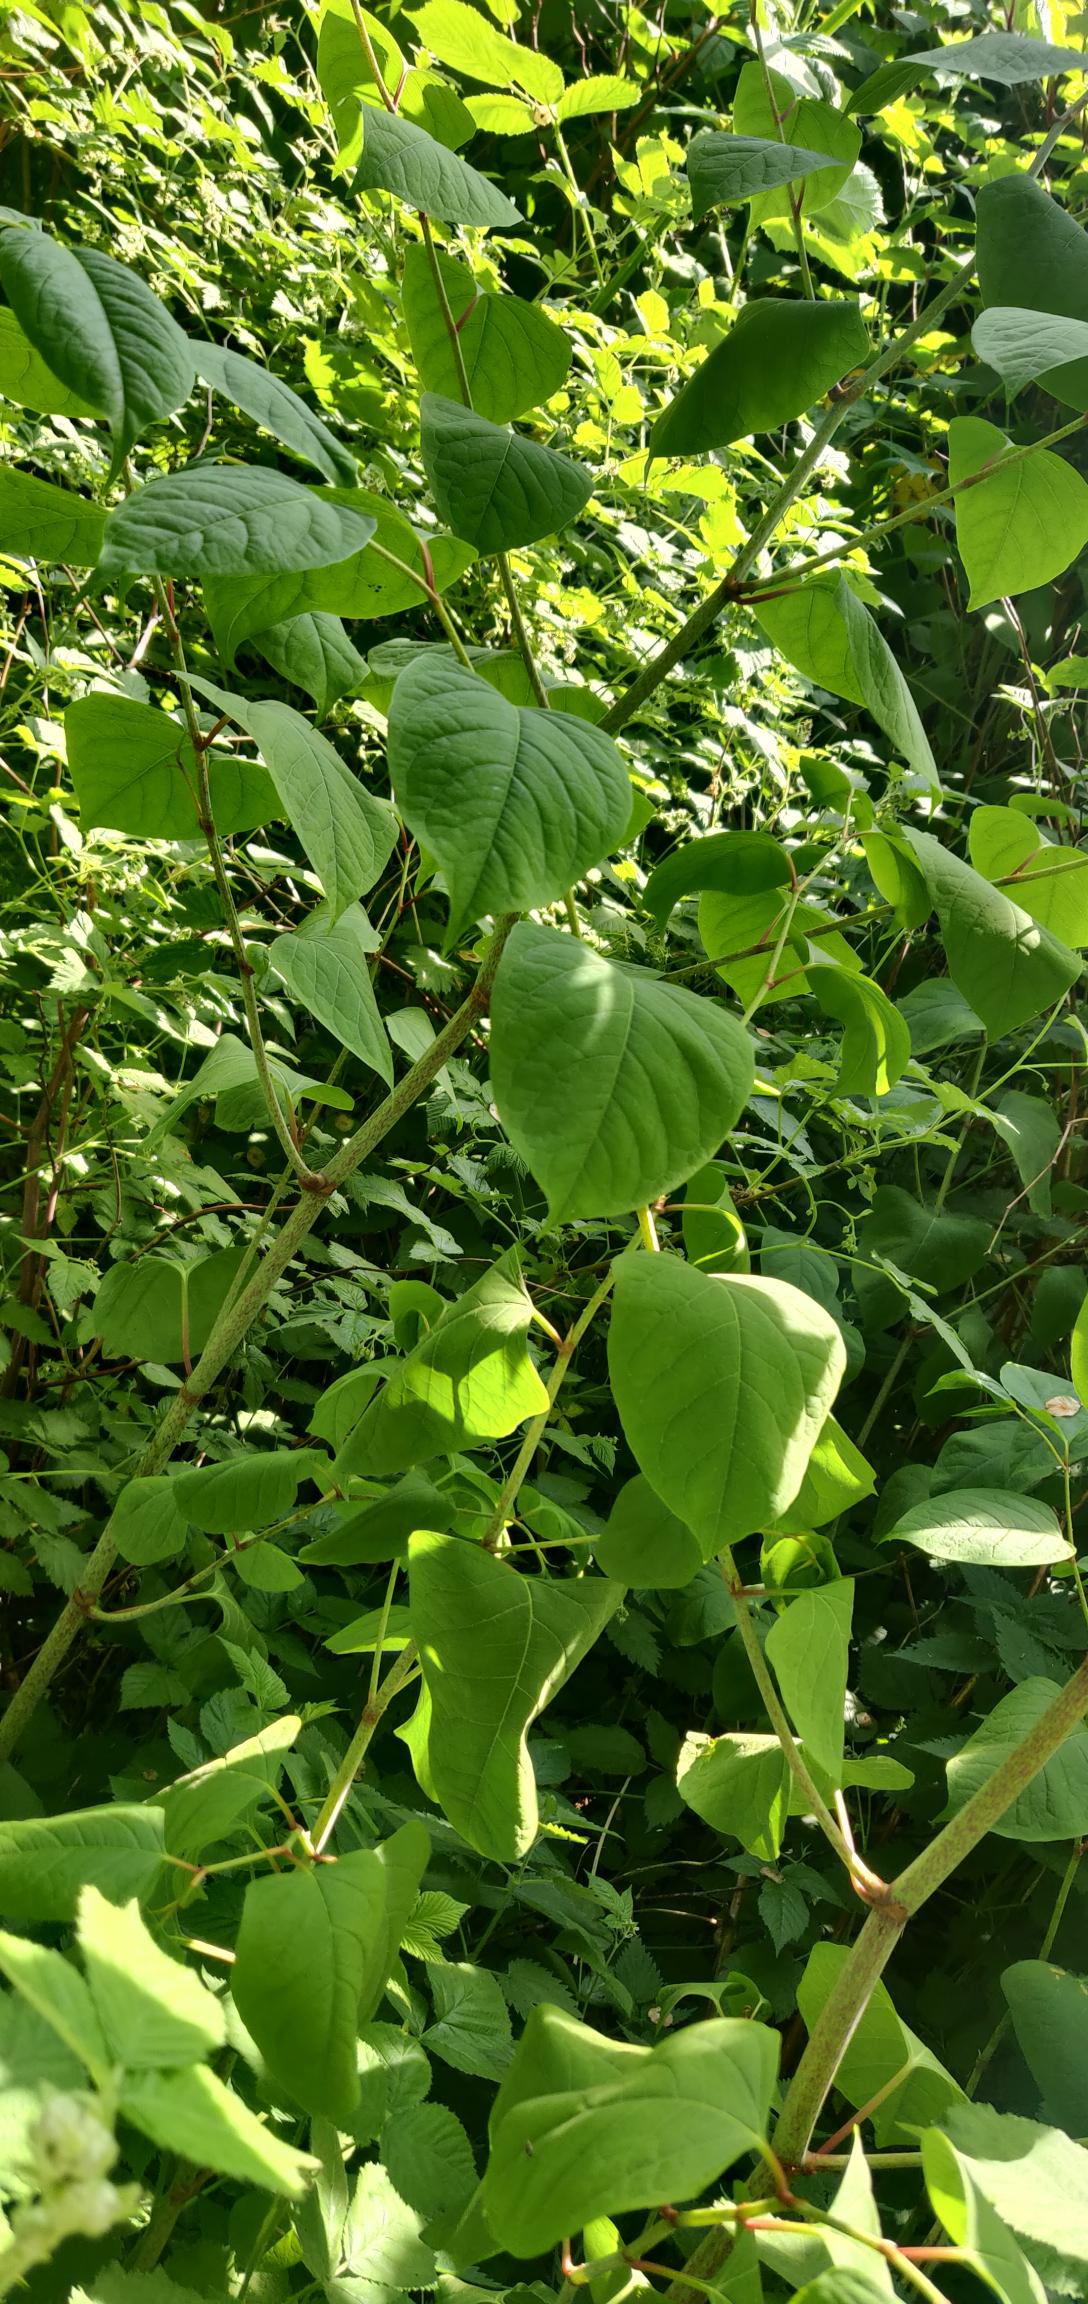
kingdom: Plantae
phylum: Tracheophyta
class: Magnoliopsida
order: Caryophyllales
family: Polygonaceae
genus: Reynoutria
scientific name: Reynoutria japonica
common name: Japan-pileurt
